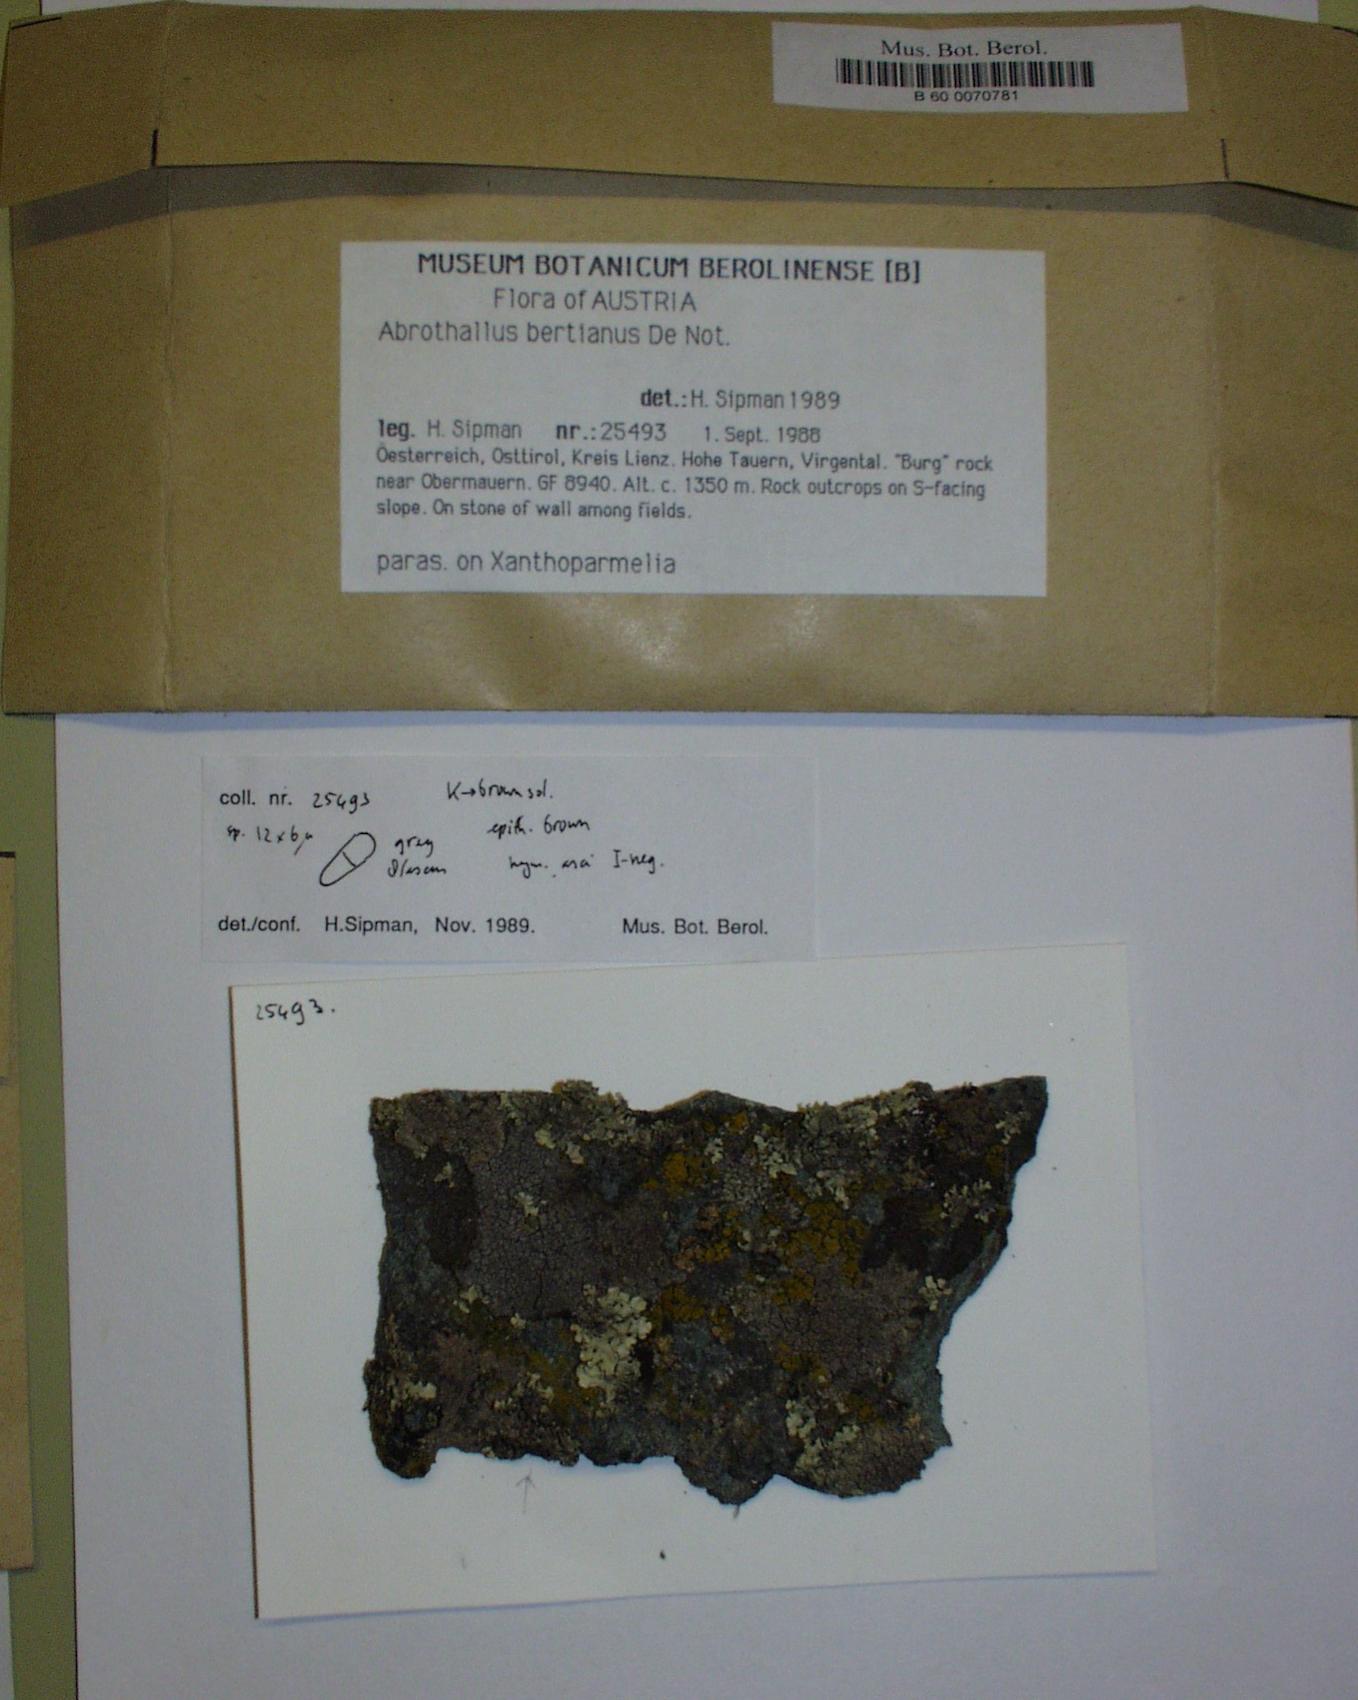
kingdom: Fungi
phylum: Ascomycota
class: Dothideomycetes
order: Abrothallales
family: Abrothallaceae
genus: Abrothallus
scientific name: Abrothallus parmeliarum
